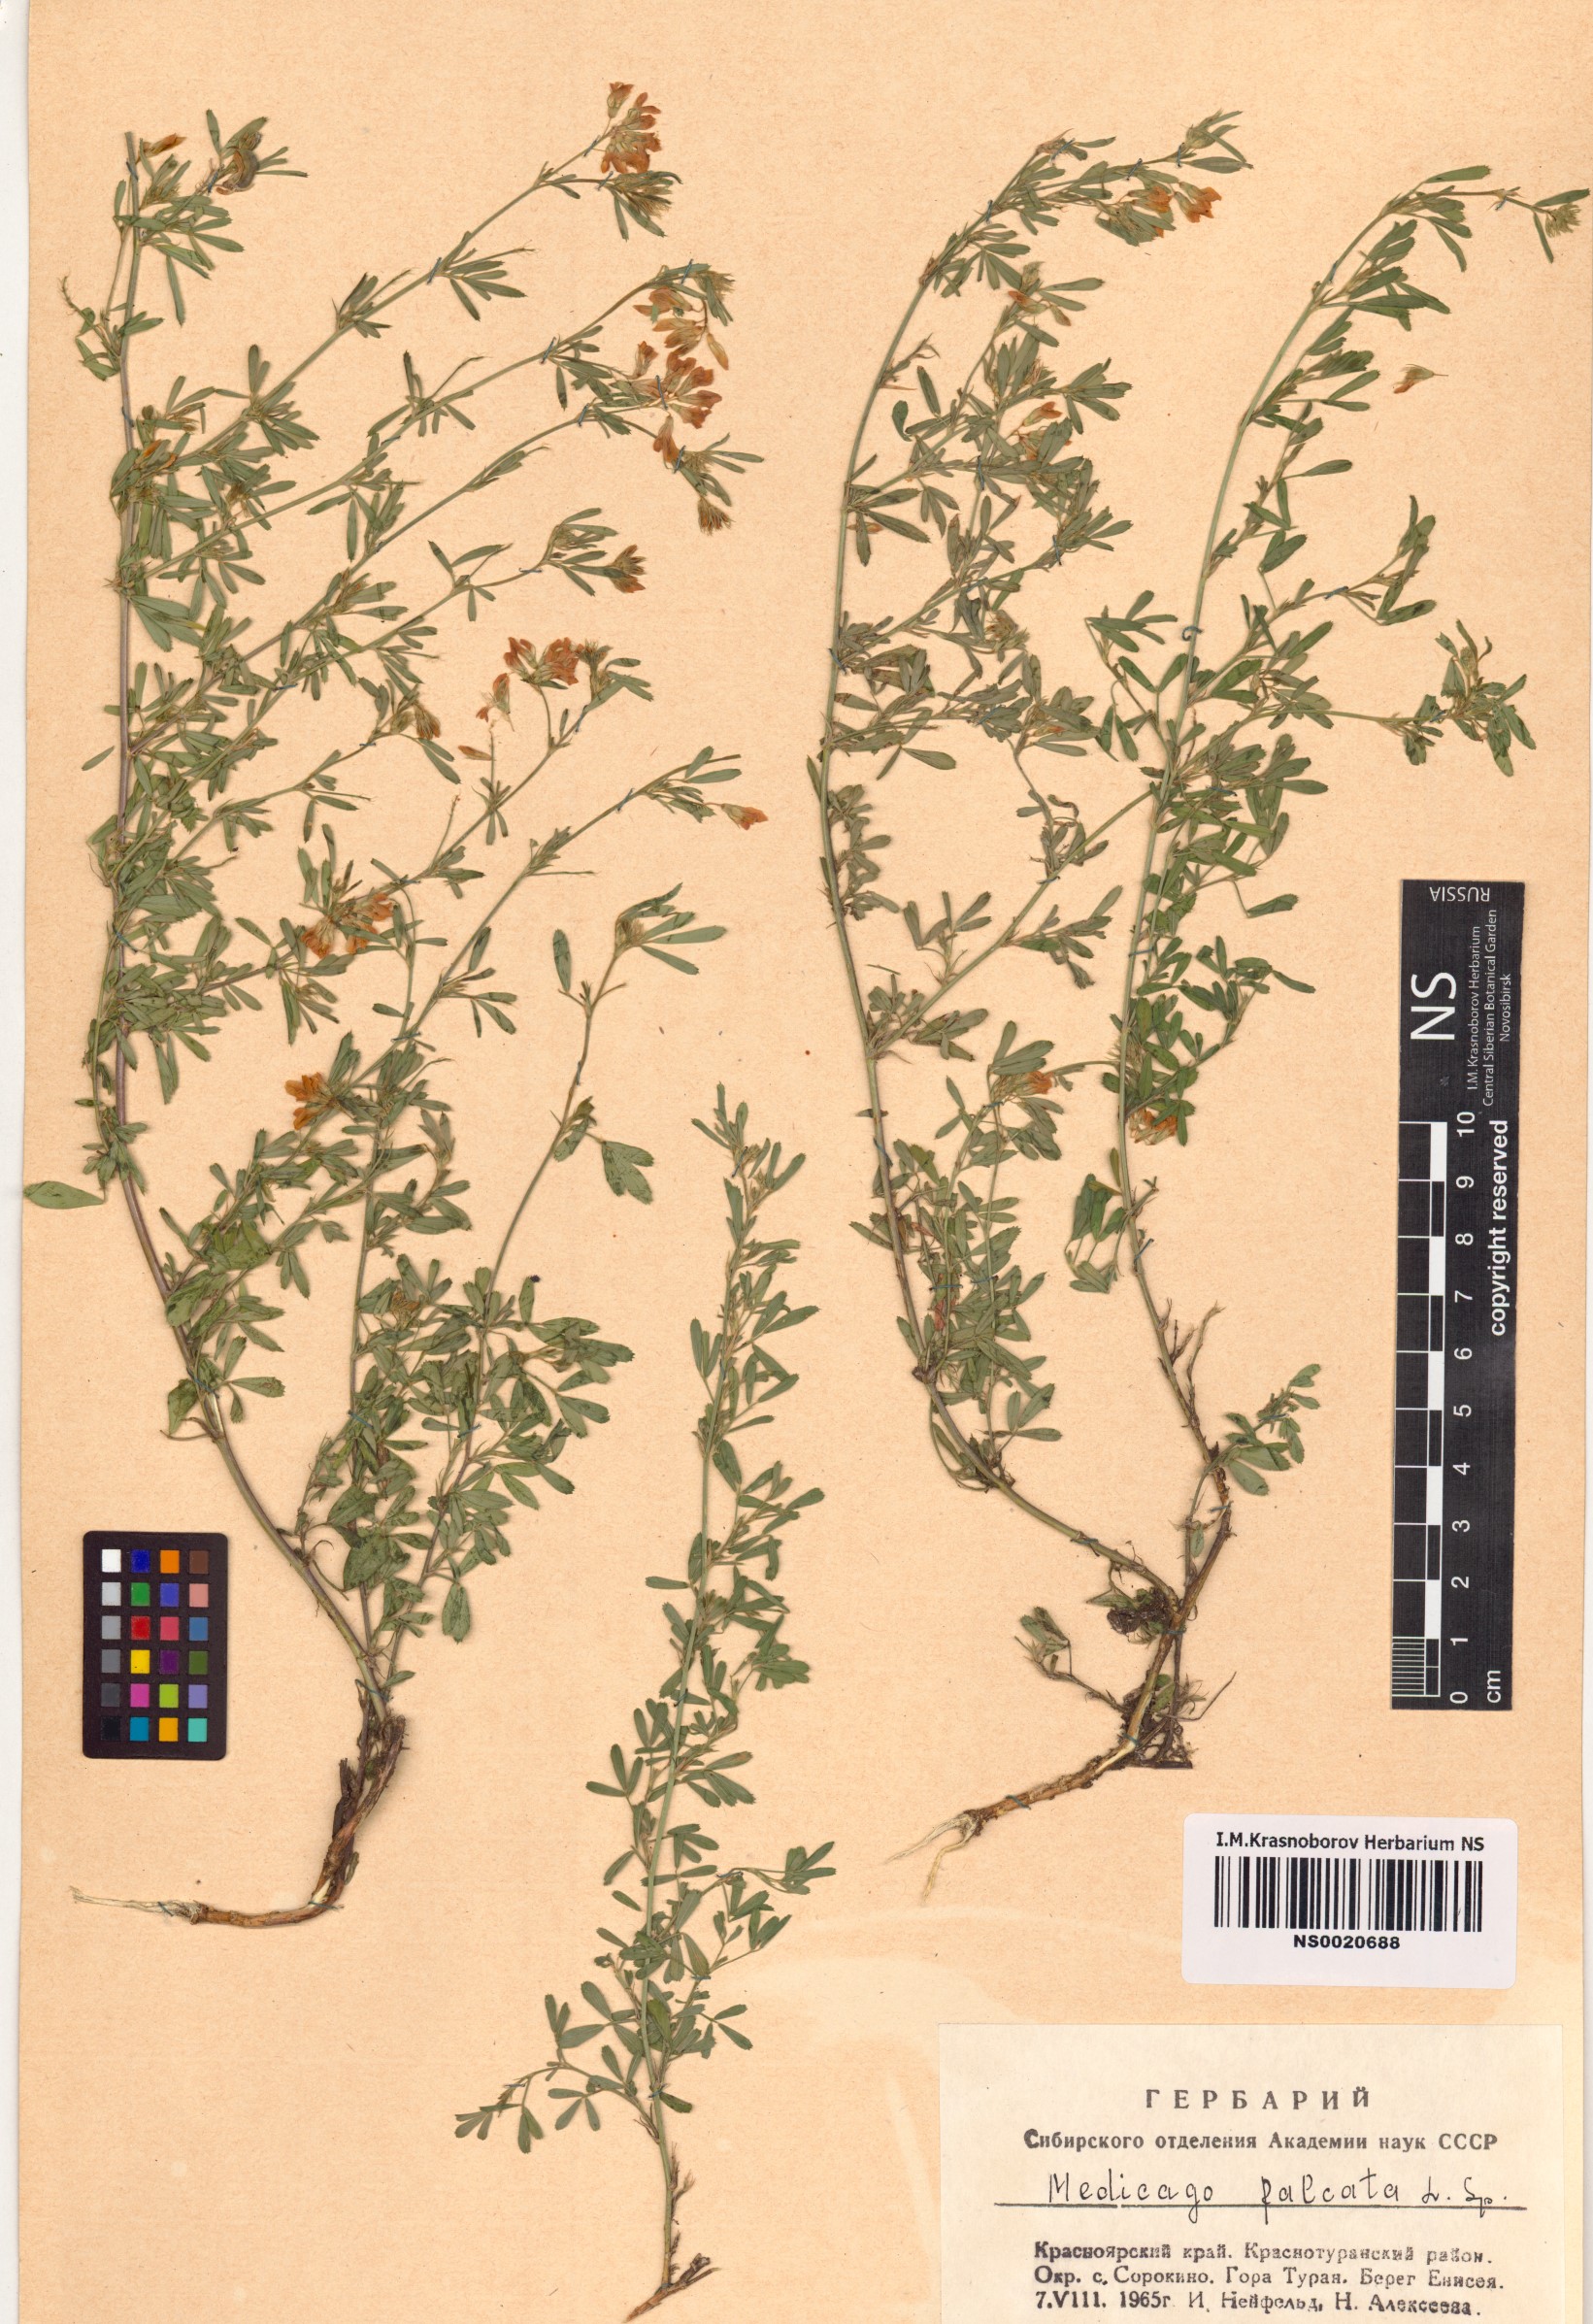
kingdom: Plantae
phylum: Tracheophyta
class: Magnoliopsida
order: Fabales
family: Fabaceae
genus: Medicago
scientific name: Medicago falcata
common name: Sickle medick
